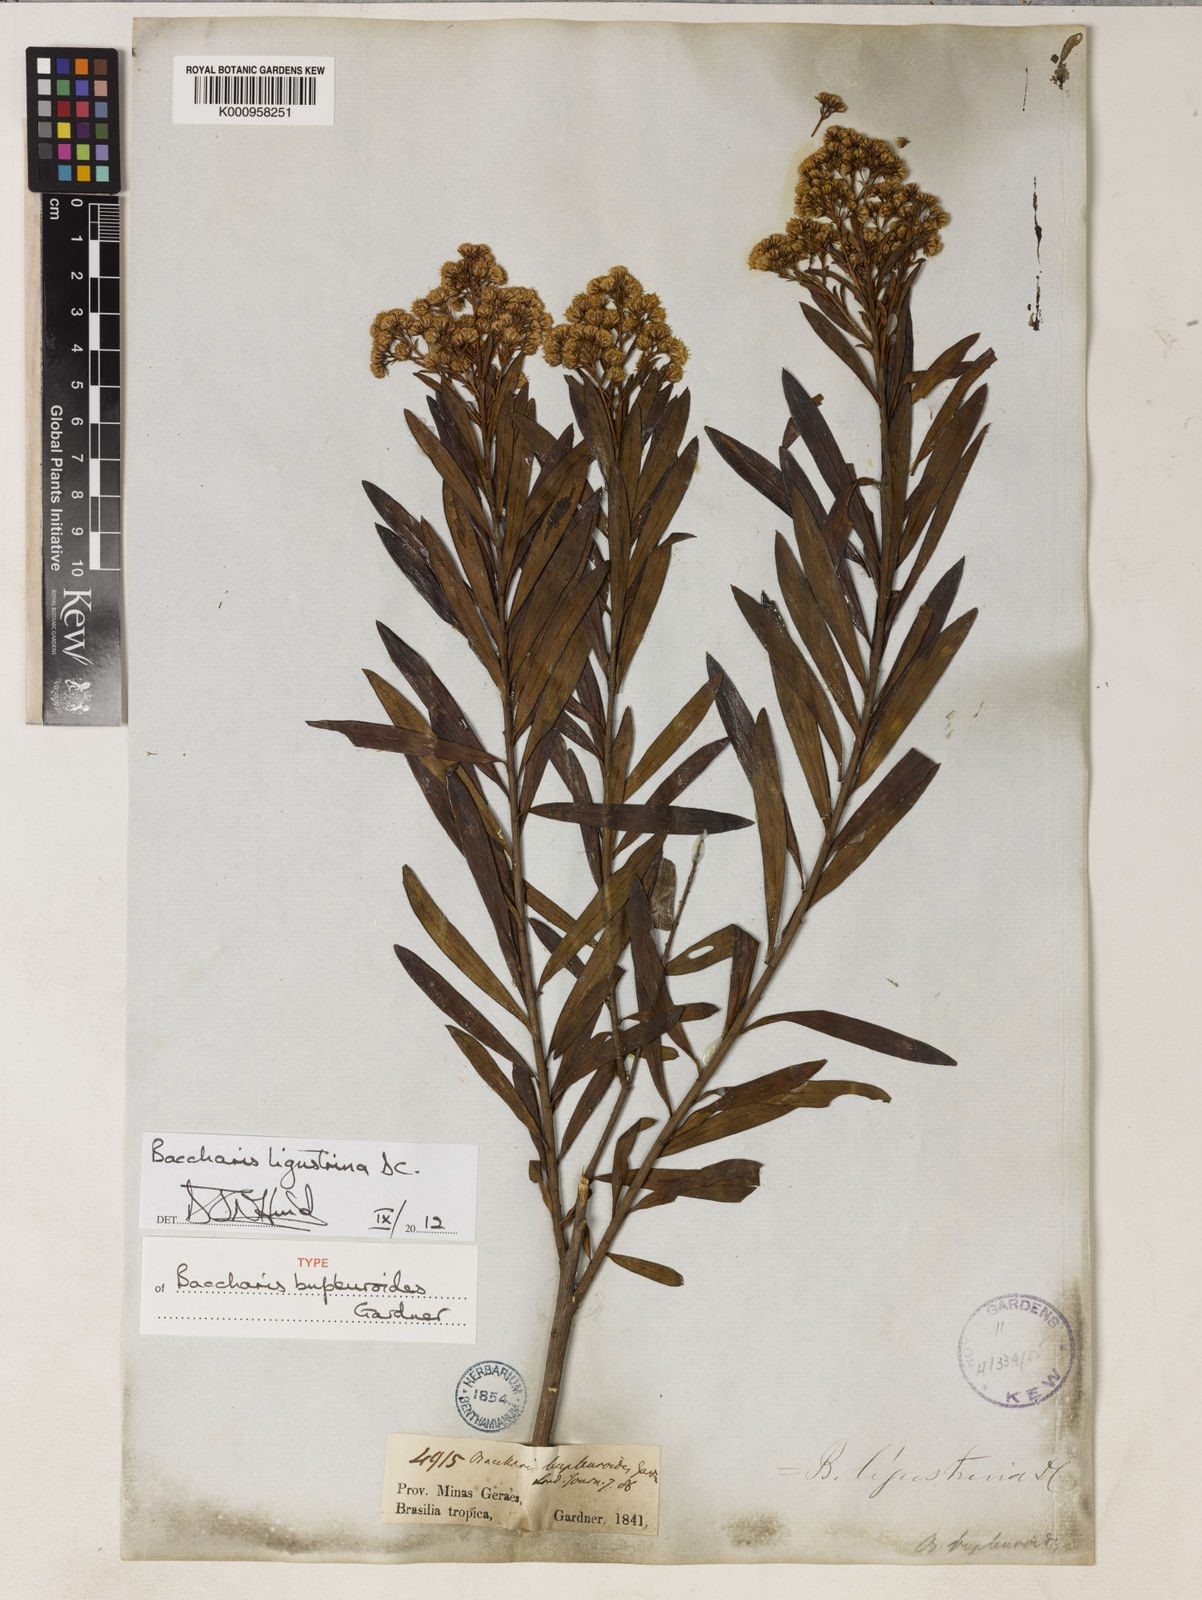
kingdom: Plantae
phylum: Tracheophyta
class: Magnoliopsida
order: Asterales
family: Asteraceae
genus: Baccharis
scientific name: Baccharis ligustrina
